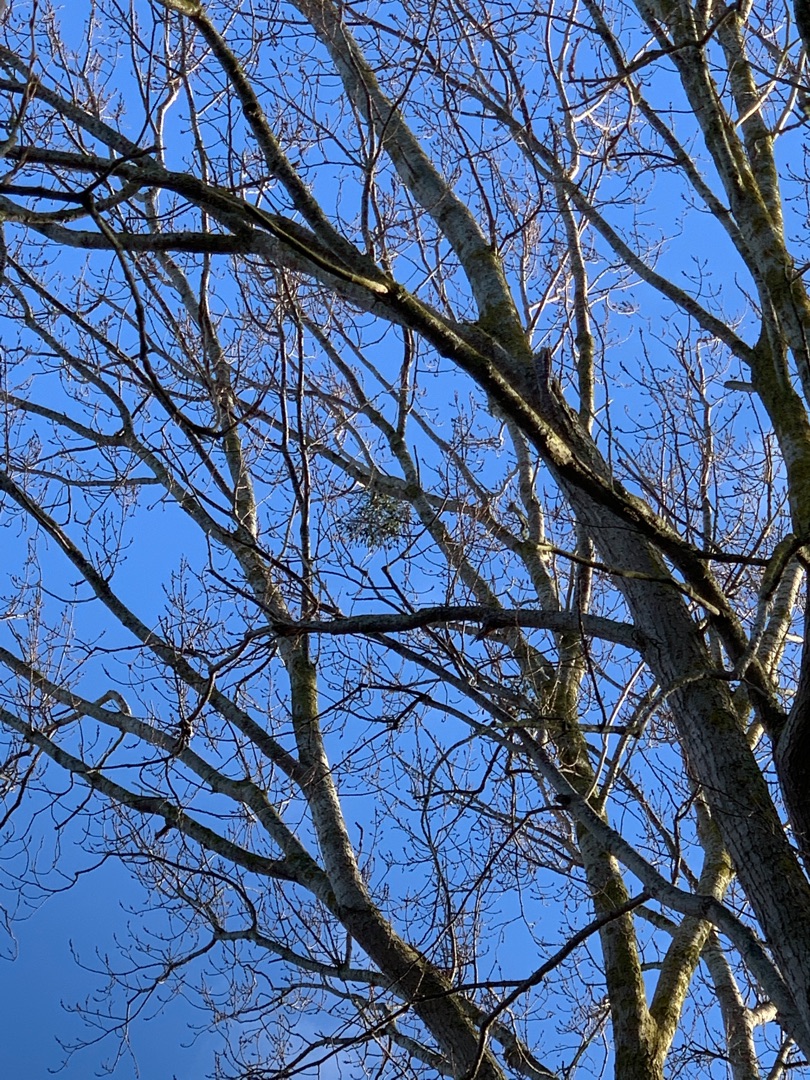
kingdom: Plantae
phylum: Tracheophyta
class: Magnoliopsida
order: Santalales
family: Viscaceae
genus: Viscum
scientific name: Viscum album
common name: Mistelten
